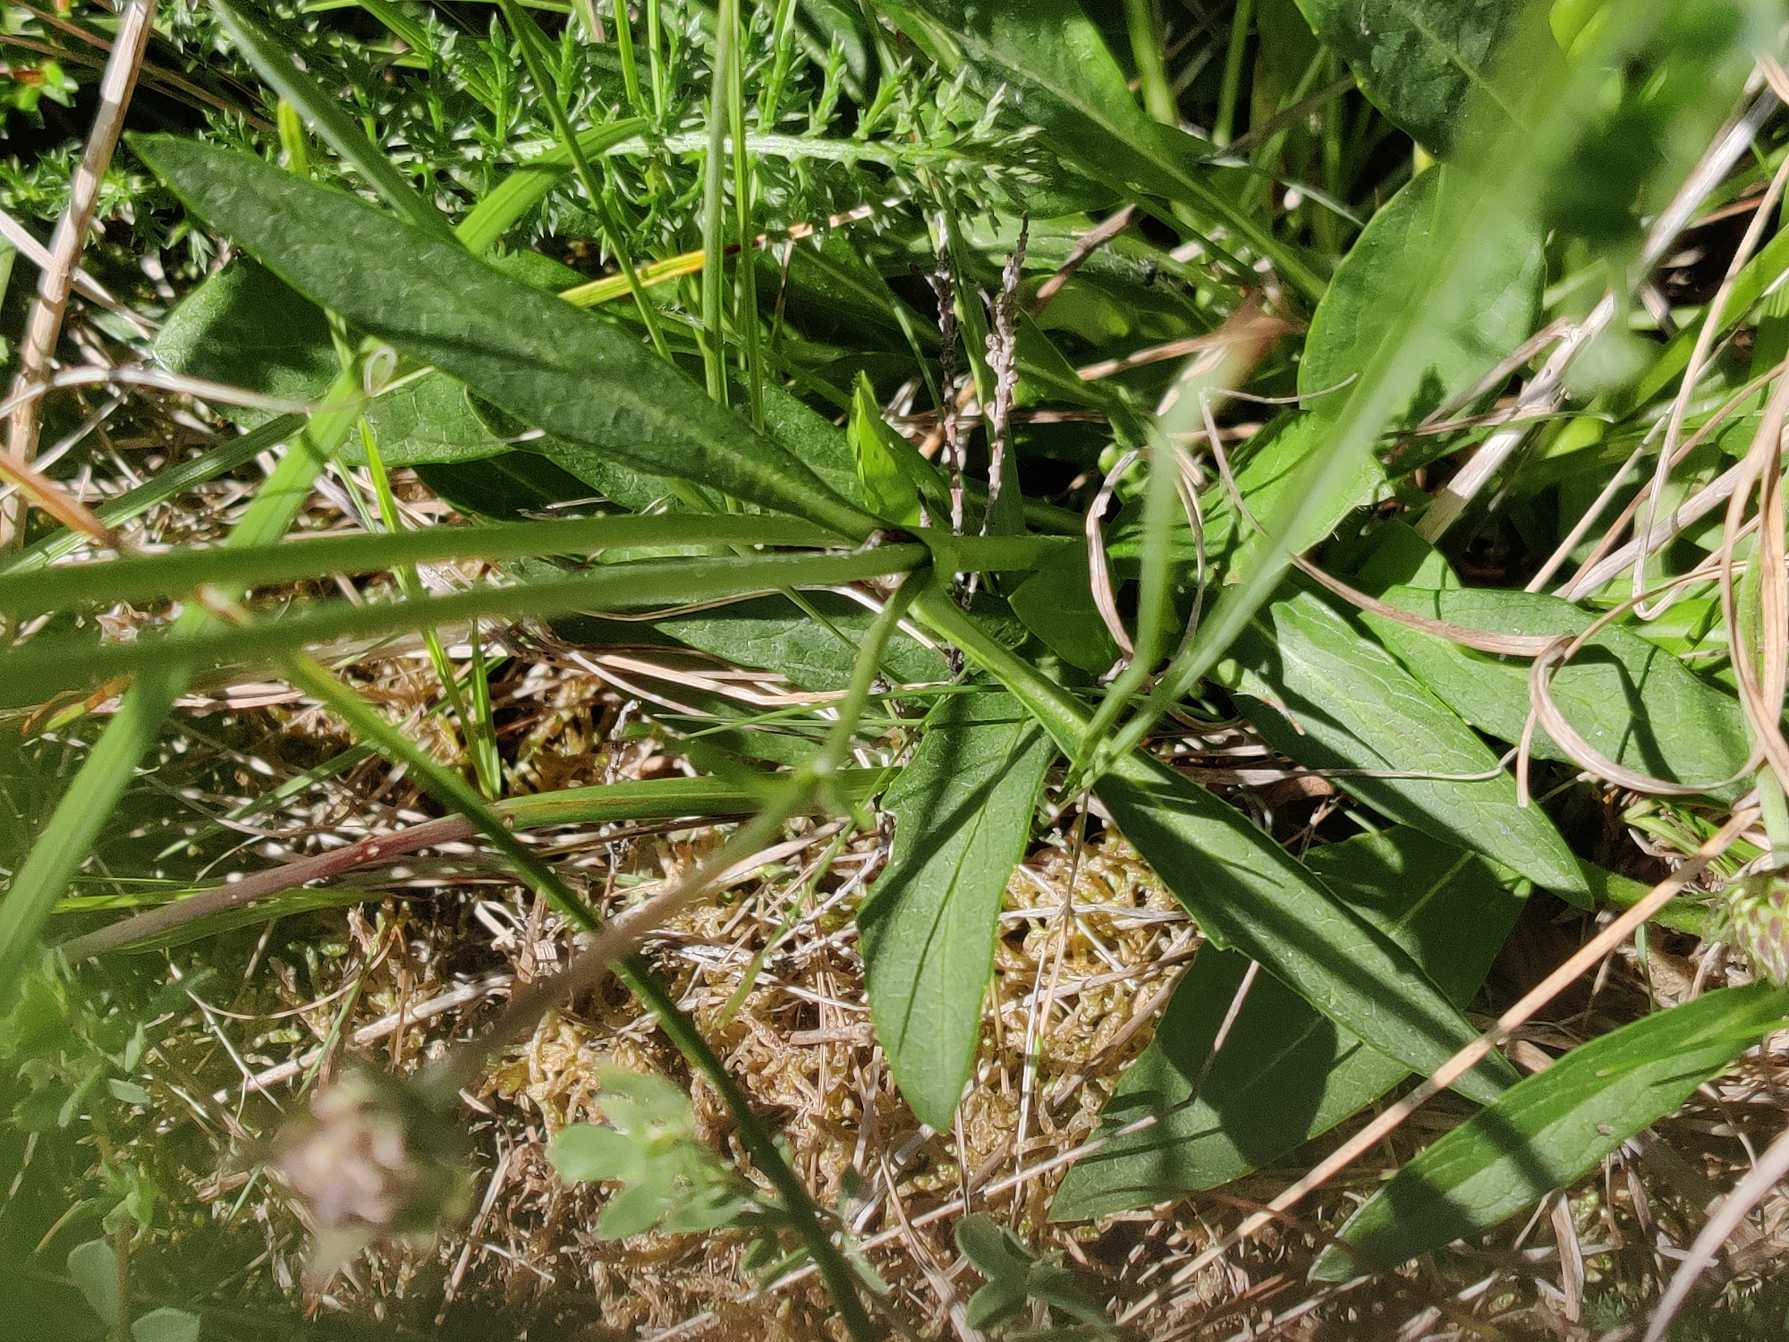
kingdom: Plantae
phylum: Tracheophyta
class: Magnoliopsida
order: Dipsacales
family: Caprifoliaceae
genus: Succisa
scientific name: Succisa pratensis
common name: Djævelsbid
